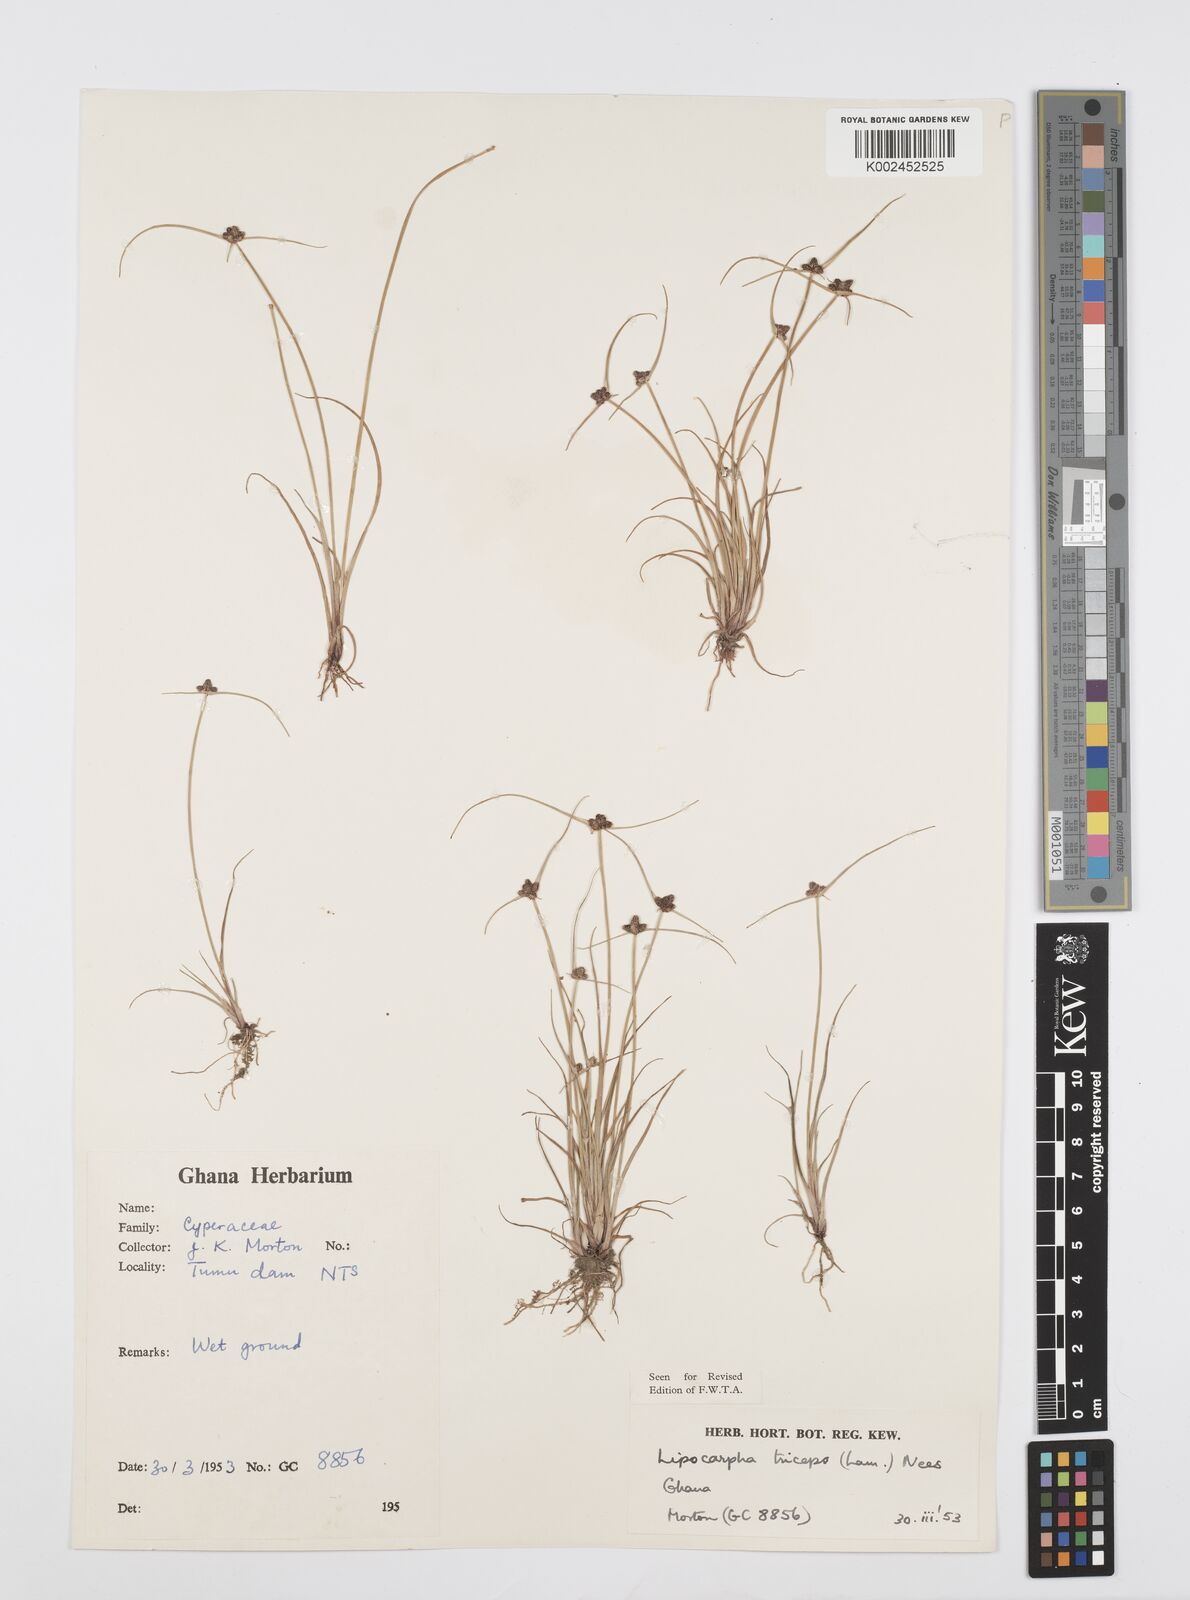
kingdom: Plantae
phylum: Tracheophyta
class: Liliopsida
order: Poales
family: Cyperaceae
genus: Cyperus
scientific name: Cyperus filiformis
